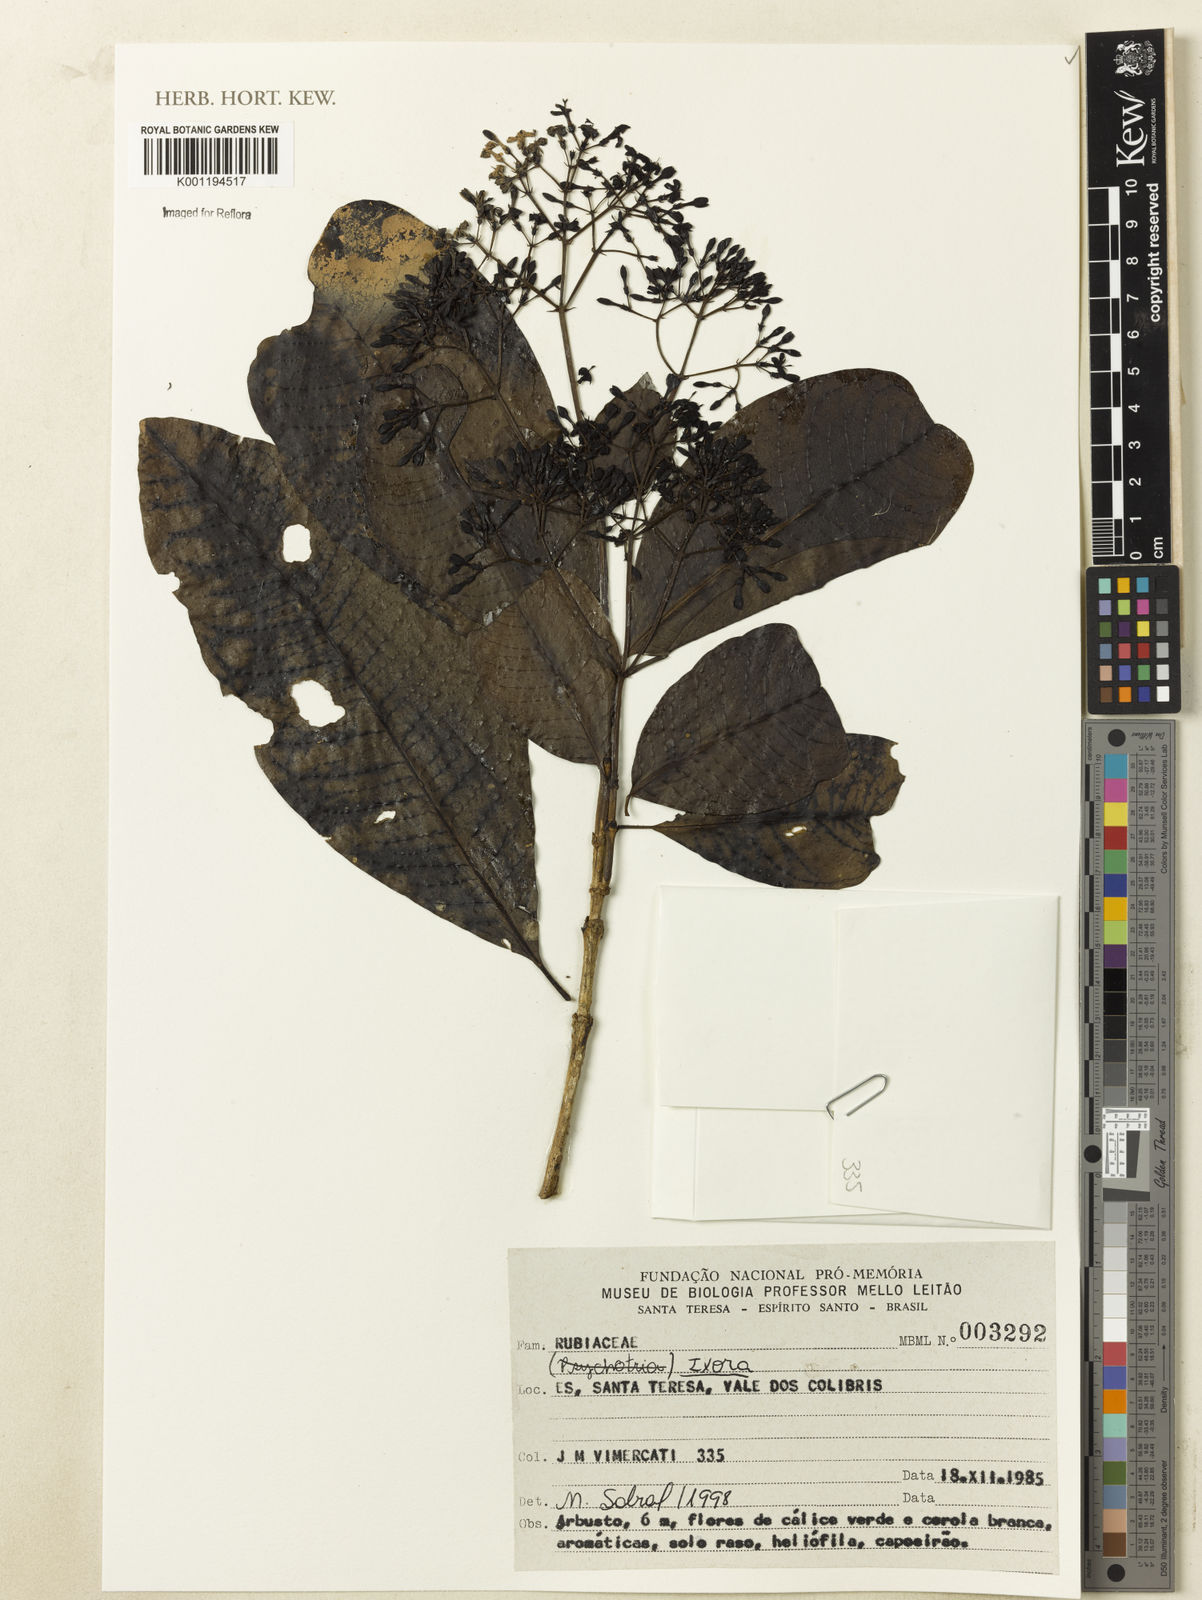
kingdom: Plantae
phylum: Tracheophyta
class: Magnoliopsida
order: Gentianales
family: Rubiaceae
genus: Ixora
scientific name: Ixora
